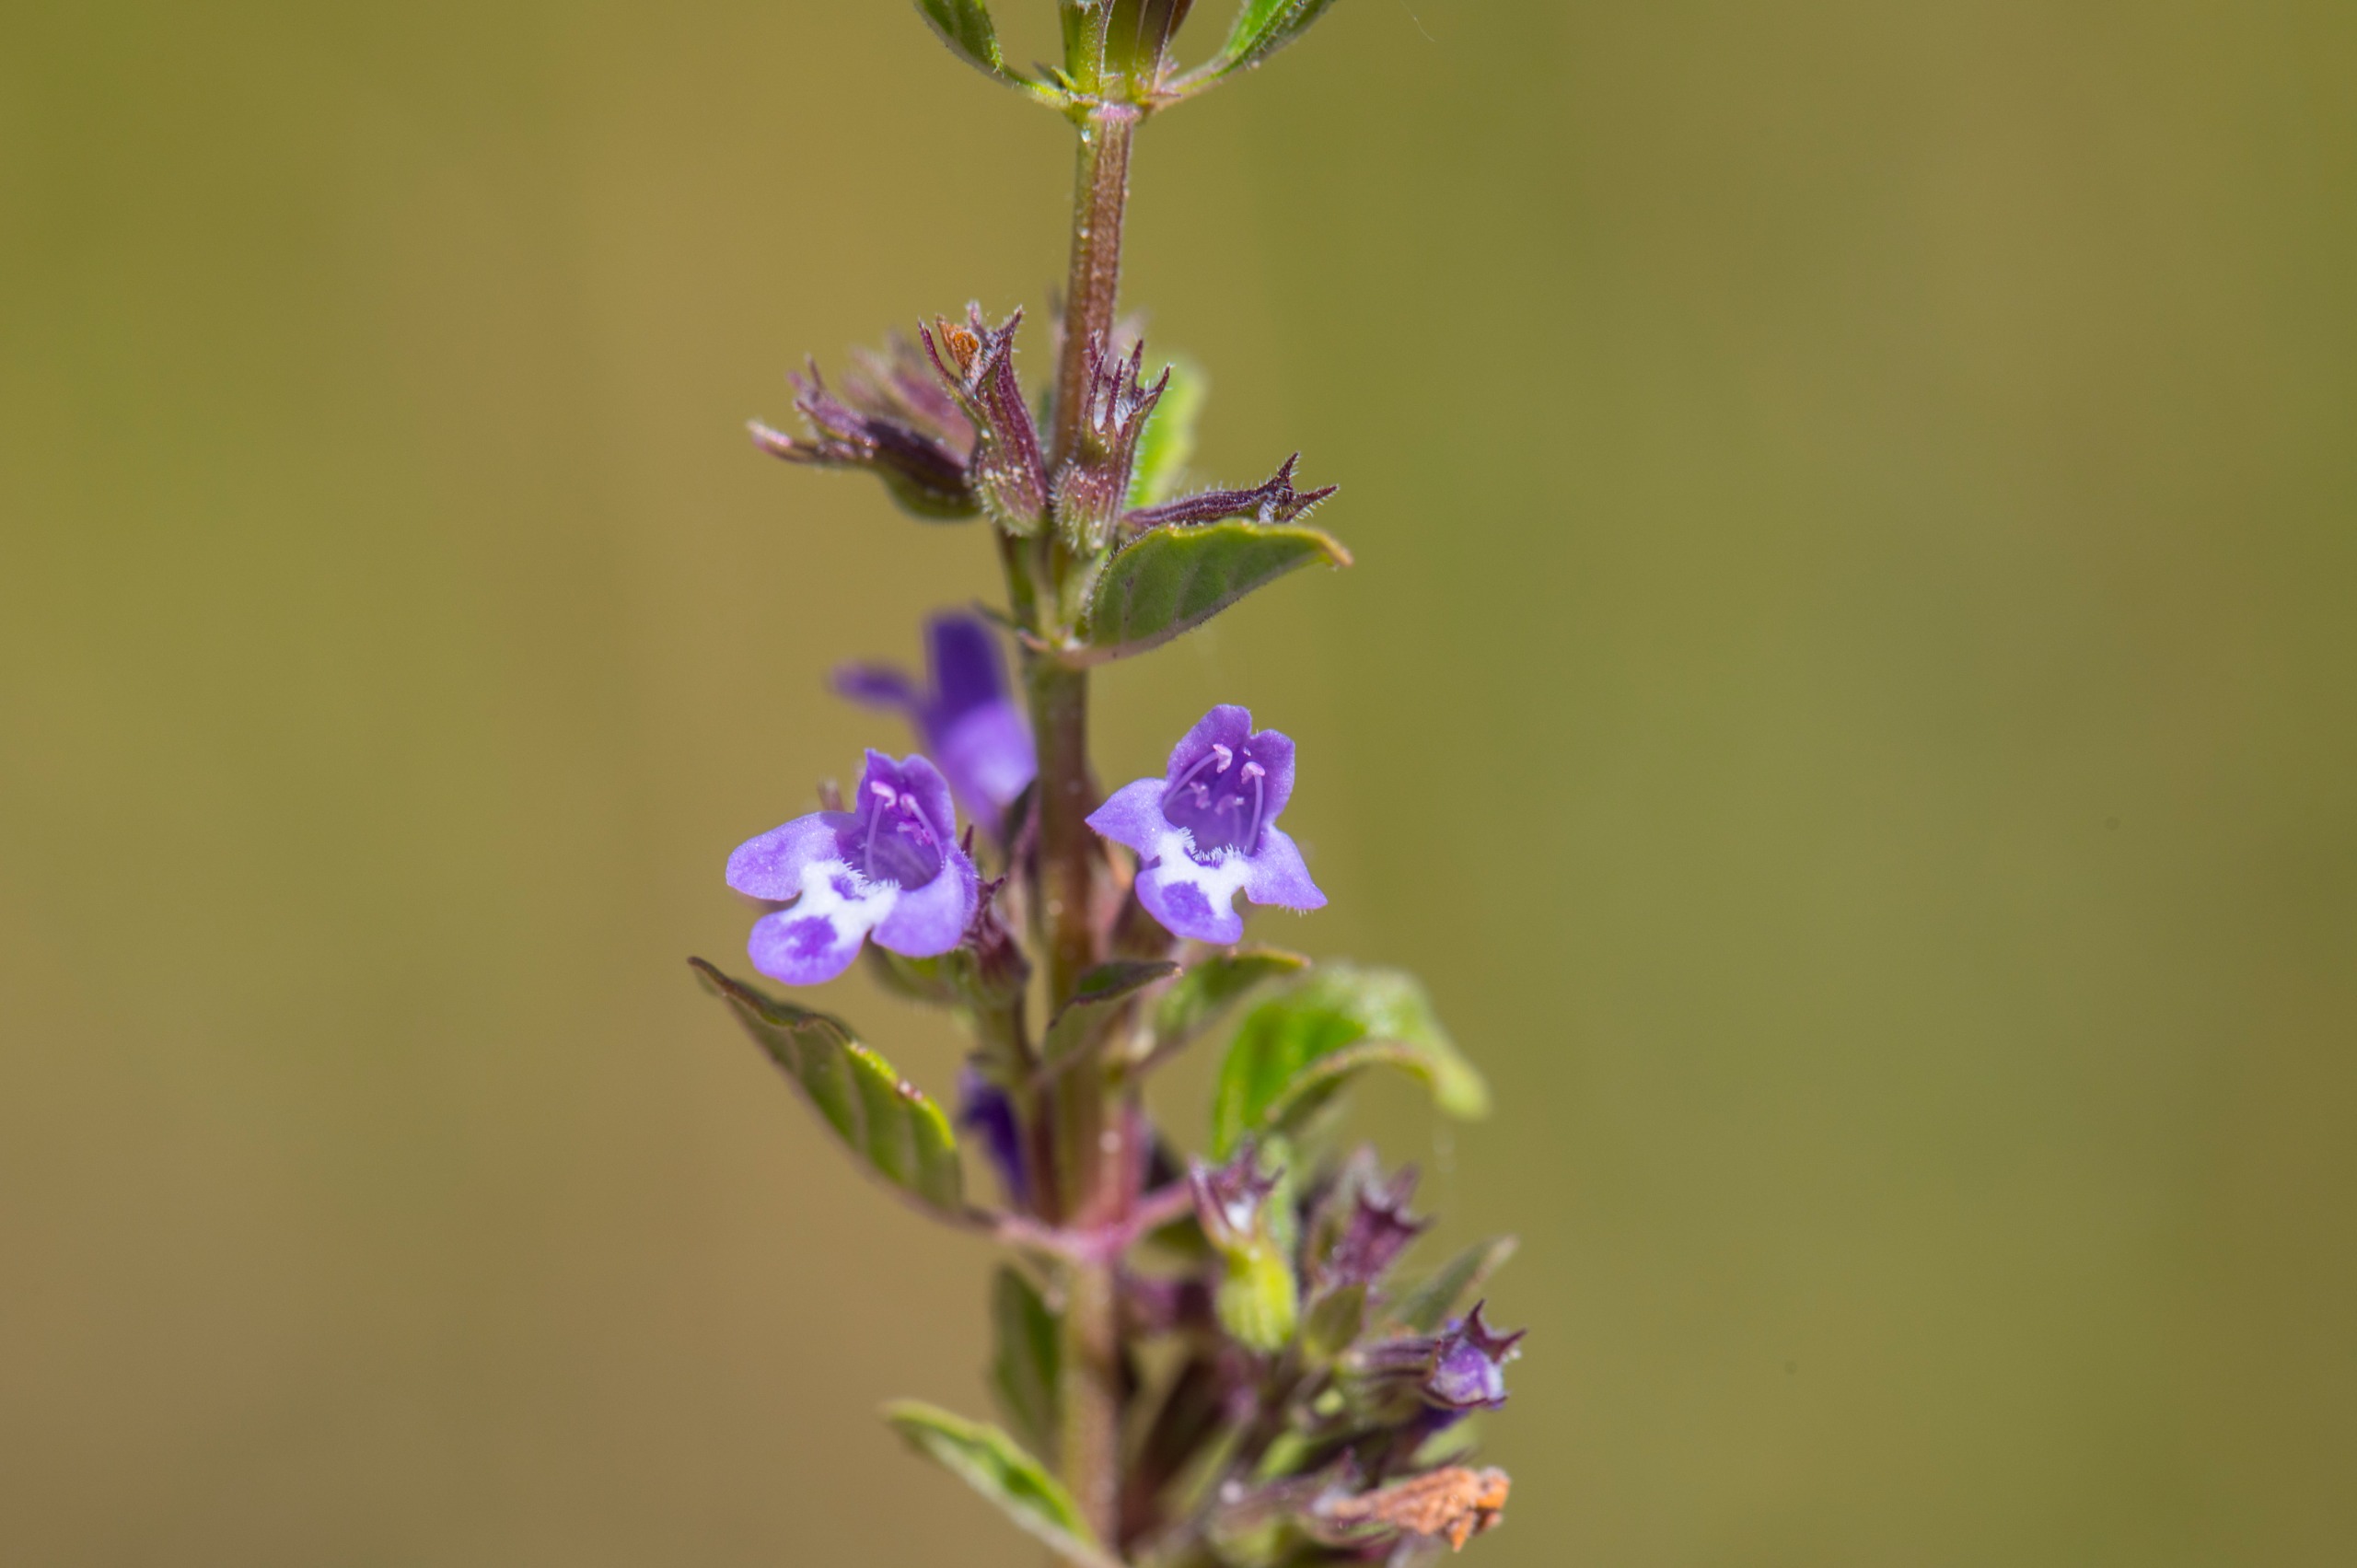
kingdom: Plantae
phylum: Tracheophyta
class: Magnoliopsida
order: Lamiales
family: Lamiaceae
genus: Clinopodium
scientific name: Clinopodium acinos
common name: Voldtimian
